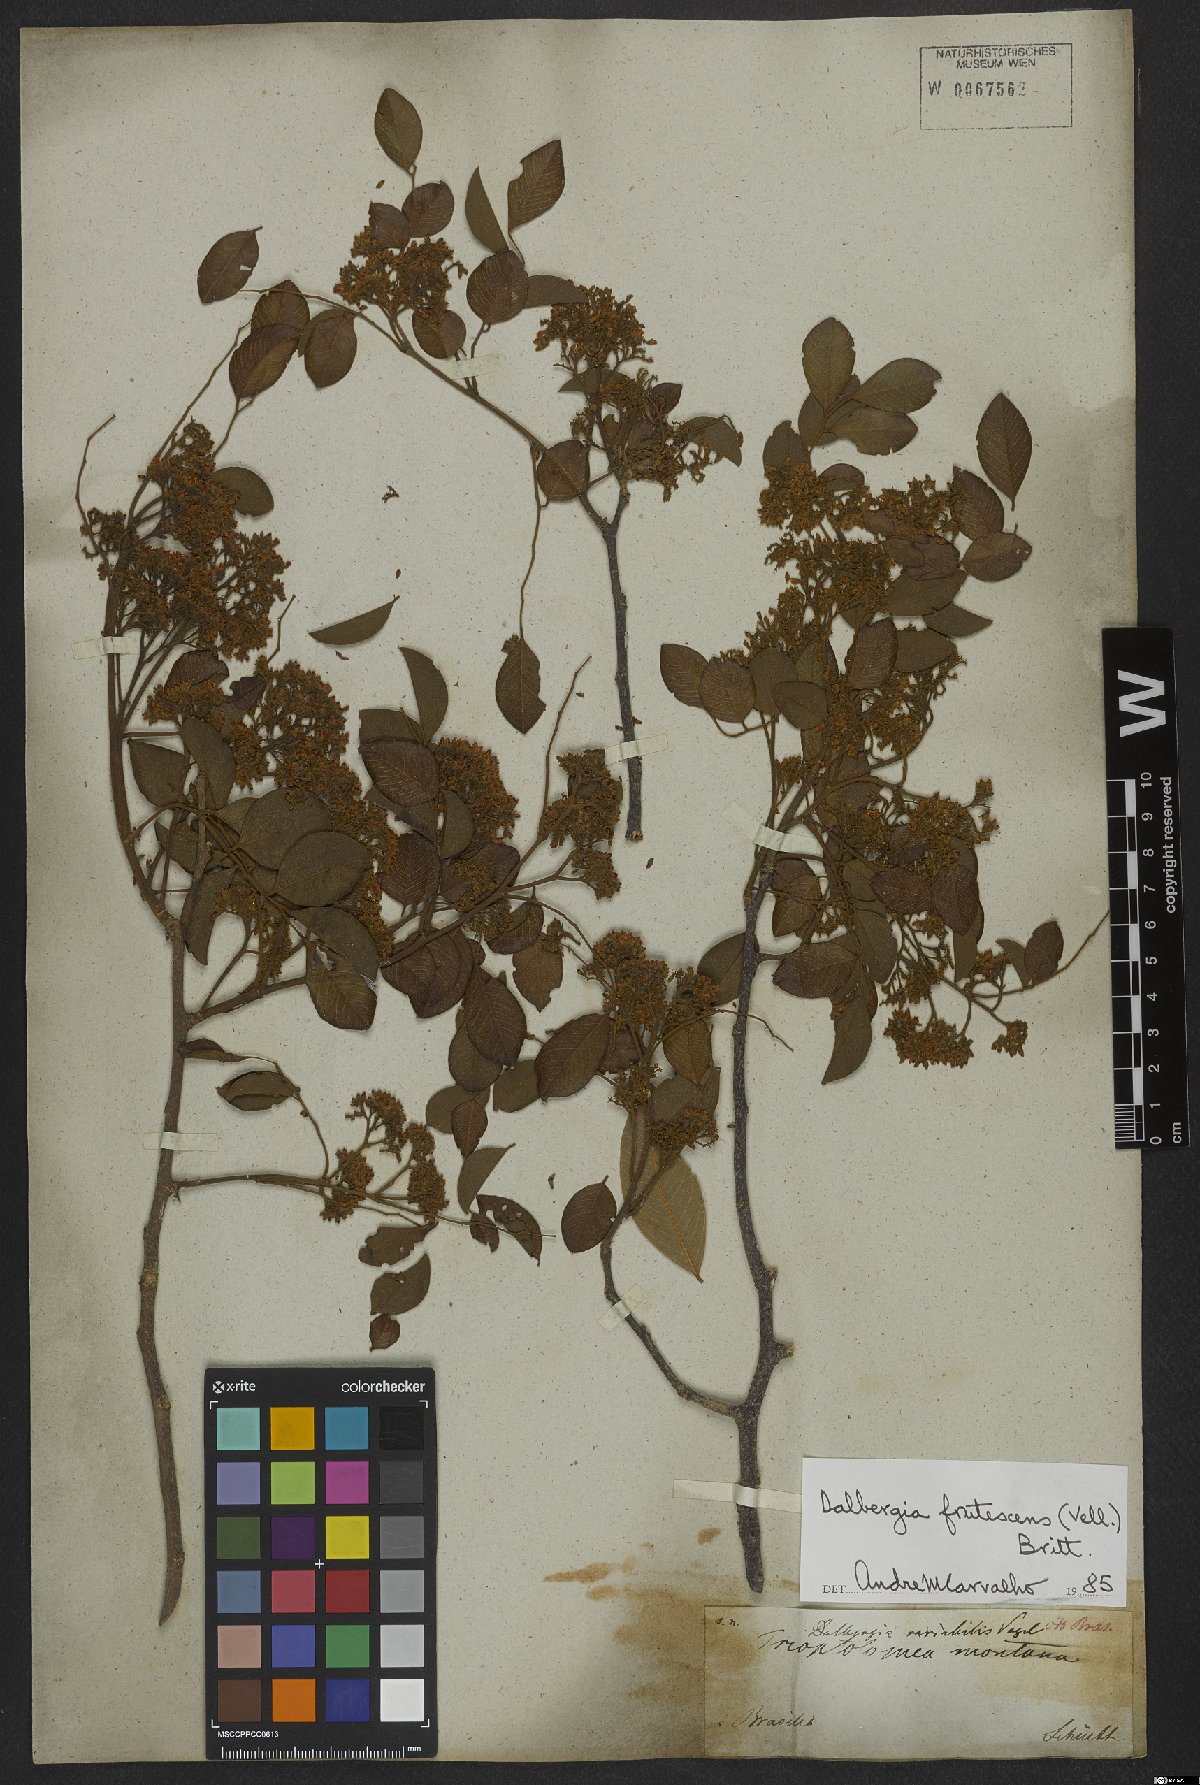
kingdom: Plantae
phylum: Tracheophyta
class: Magnoliopsida
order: Fabales
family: Fabaceae
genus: Dalbergia
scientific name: Dalbergia frutescens
